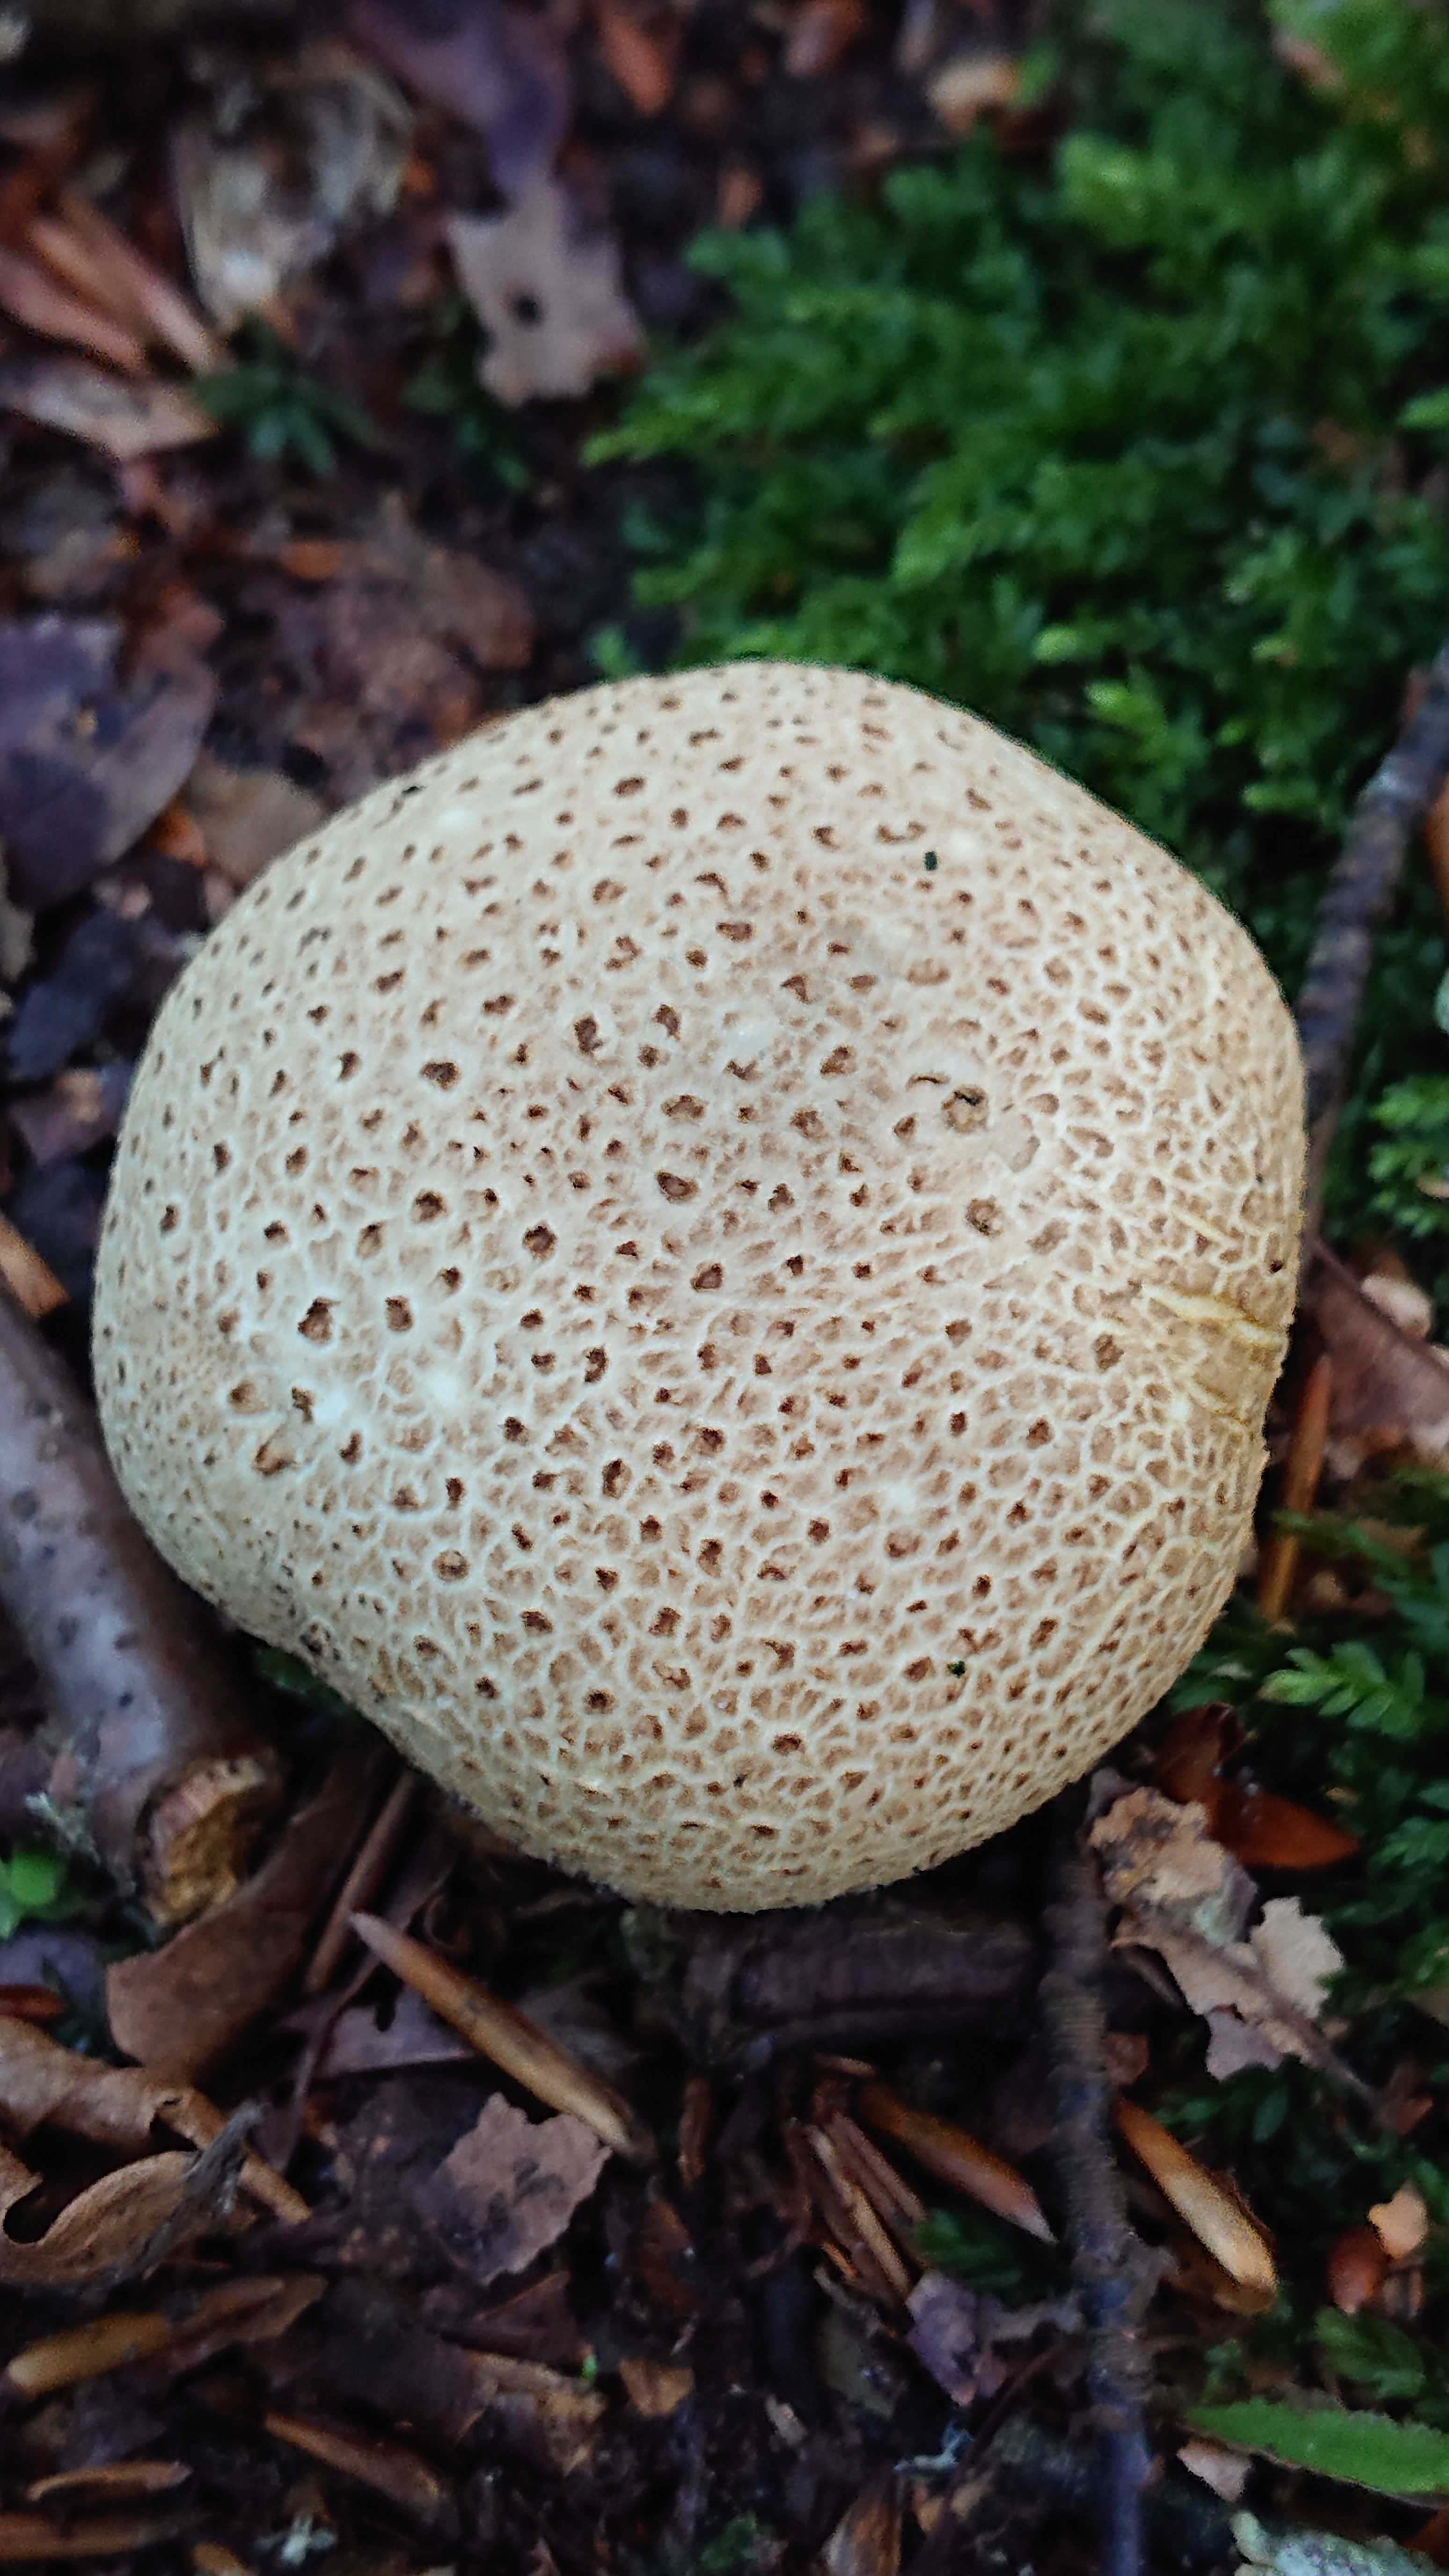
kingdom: Fungi
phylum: Basidiomycota
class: Agaricomycetes
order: Boletales
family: Sclerodermataceae
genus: Scleroderma
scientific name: Scleroderma citrinum
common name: almindelig bruskbold
